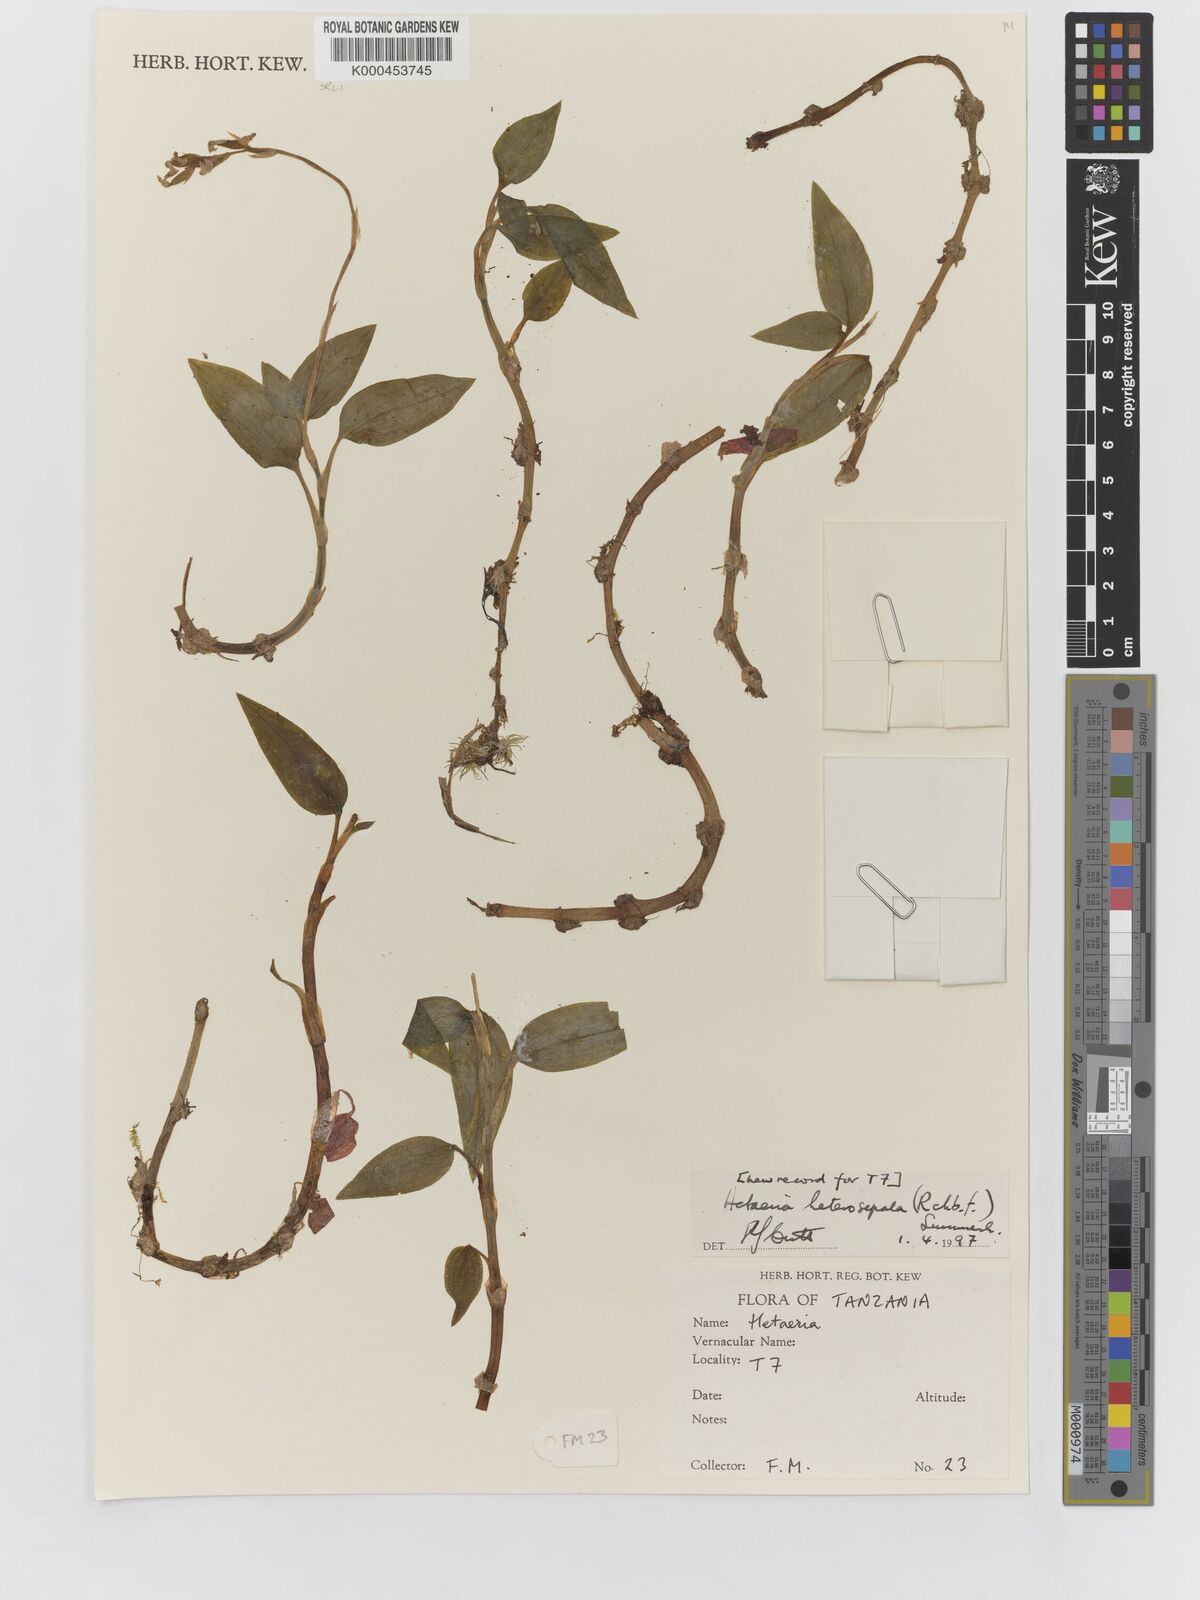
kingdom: Plantae
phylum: Tracheophyta
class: Liliopsida
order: Asparagales
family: Orchidaceae
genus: Hetaeria
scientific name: Hetaeria heterosepala
